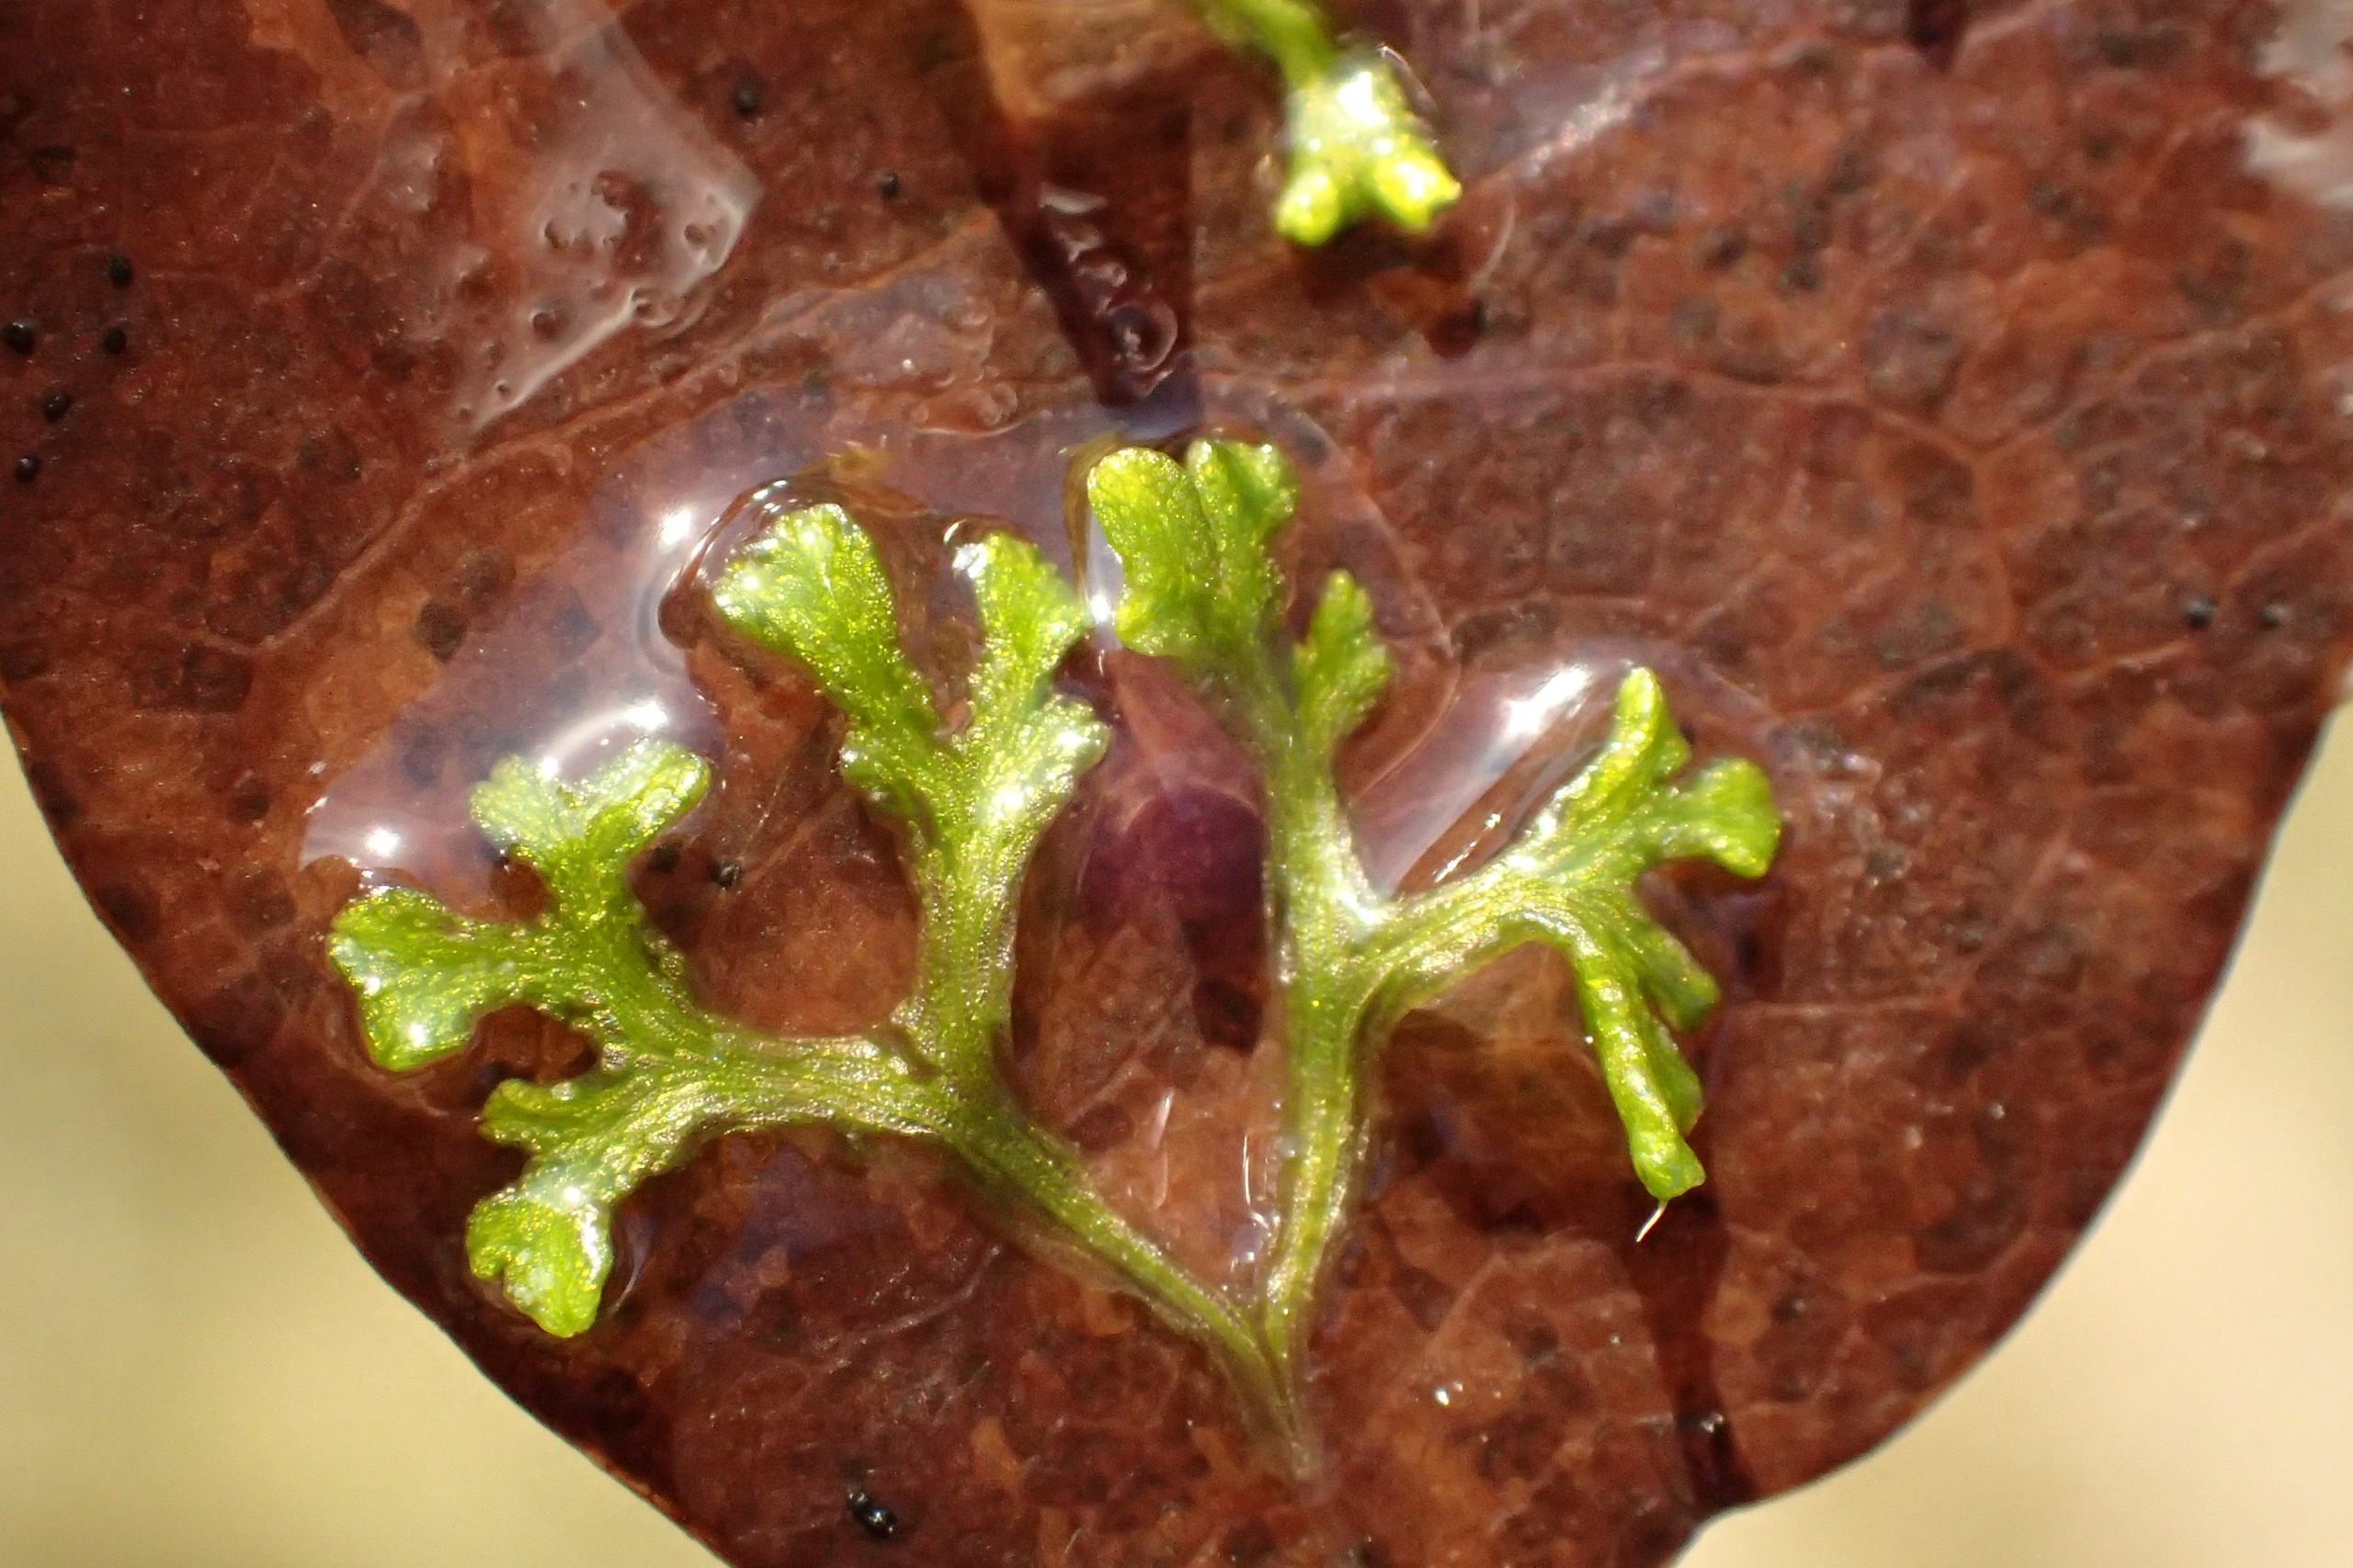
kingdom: Plantae
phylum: Marchantiophyta
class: Marchantiopsida
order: Marchantiales
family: Ricciaceae
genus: Riccia
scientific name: Riccia fluitans
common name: Svømmende stjerneløv
